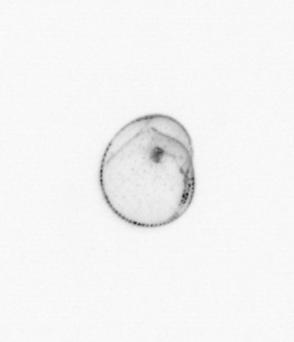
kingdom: Chromista
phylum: Myzozoa
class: Dinophyceae
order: Noctilucales
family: Noctilucaceae
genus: Noctiluca
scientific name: Noctiluca scintillans
